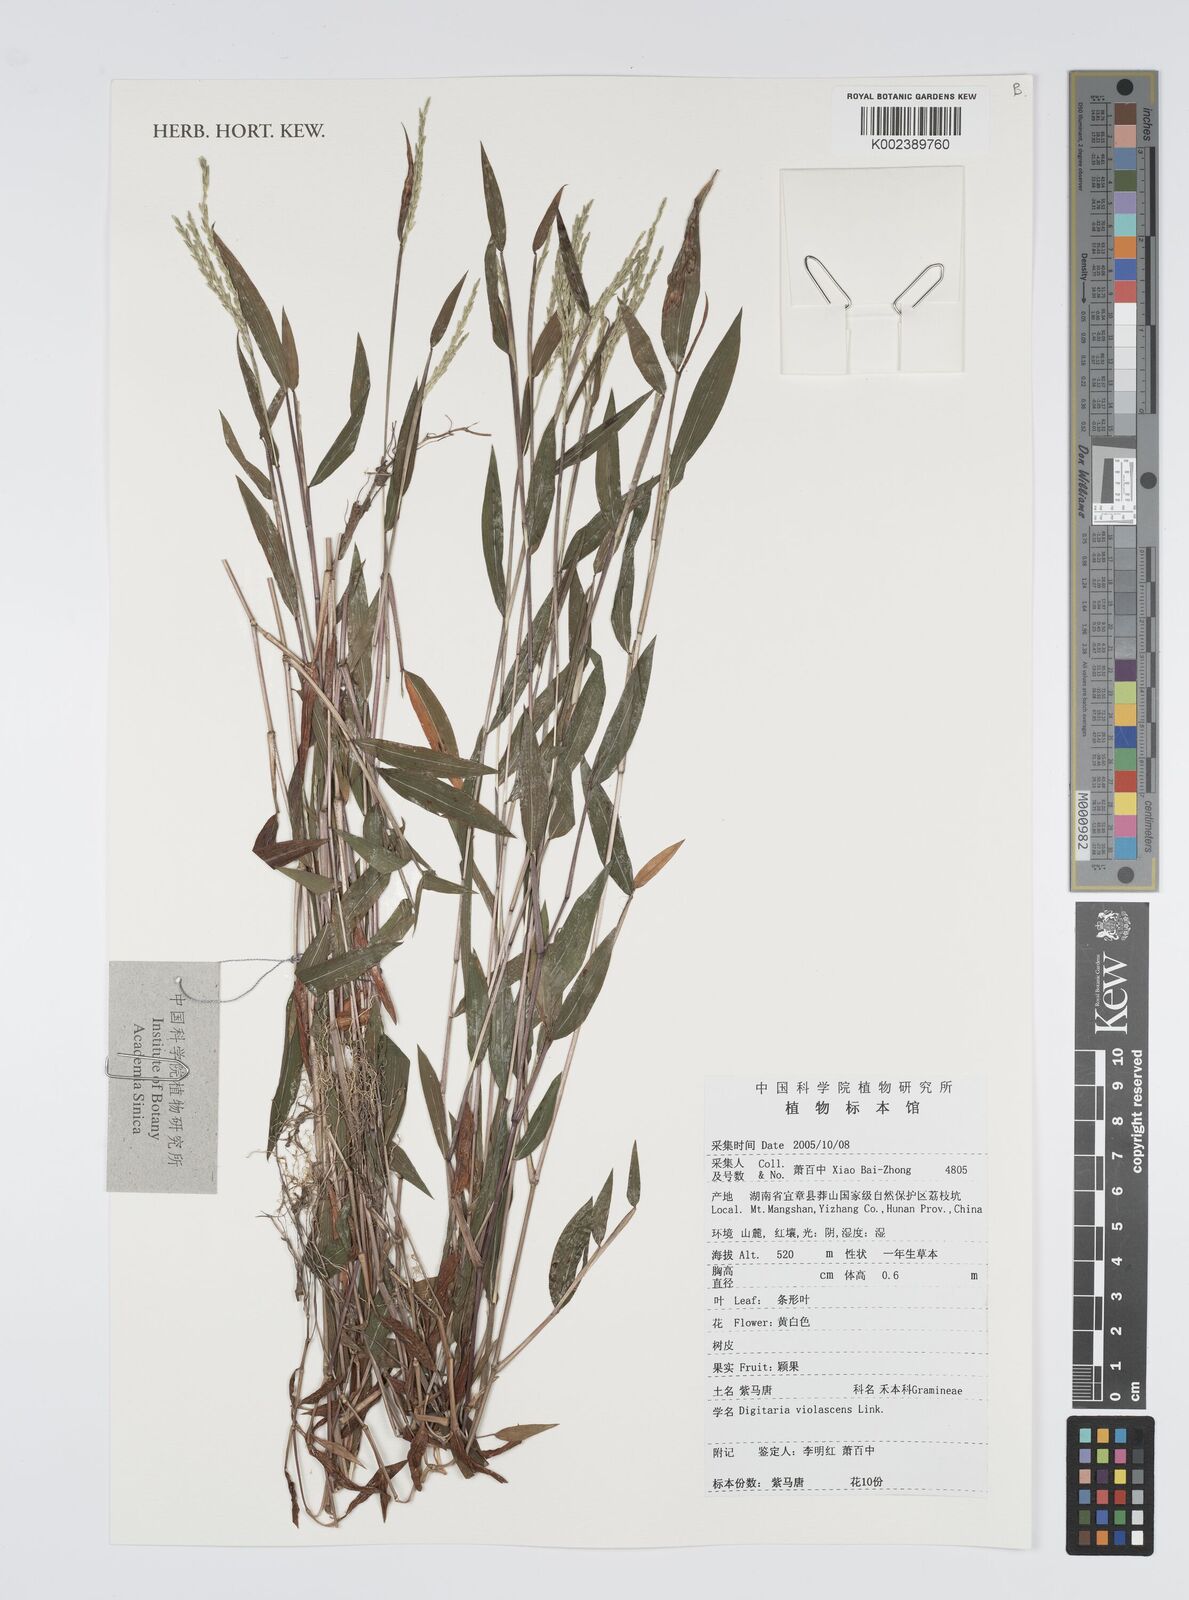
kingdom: Plantae
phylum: Tracheophyta
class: Liliopsida
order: Poales
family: Poaceae
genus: Digitaria
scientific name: Digitaria violascens
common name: Violet crabgrass
